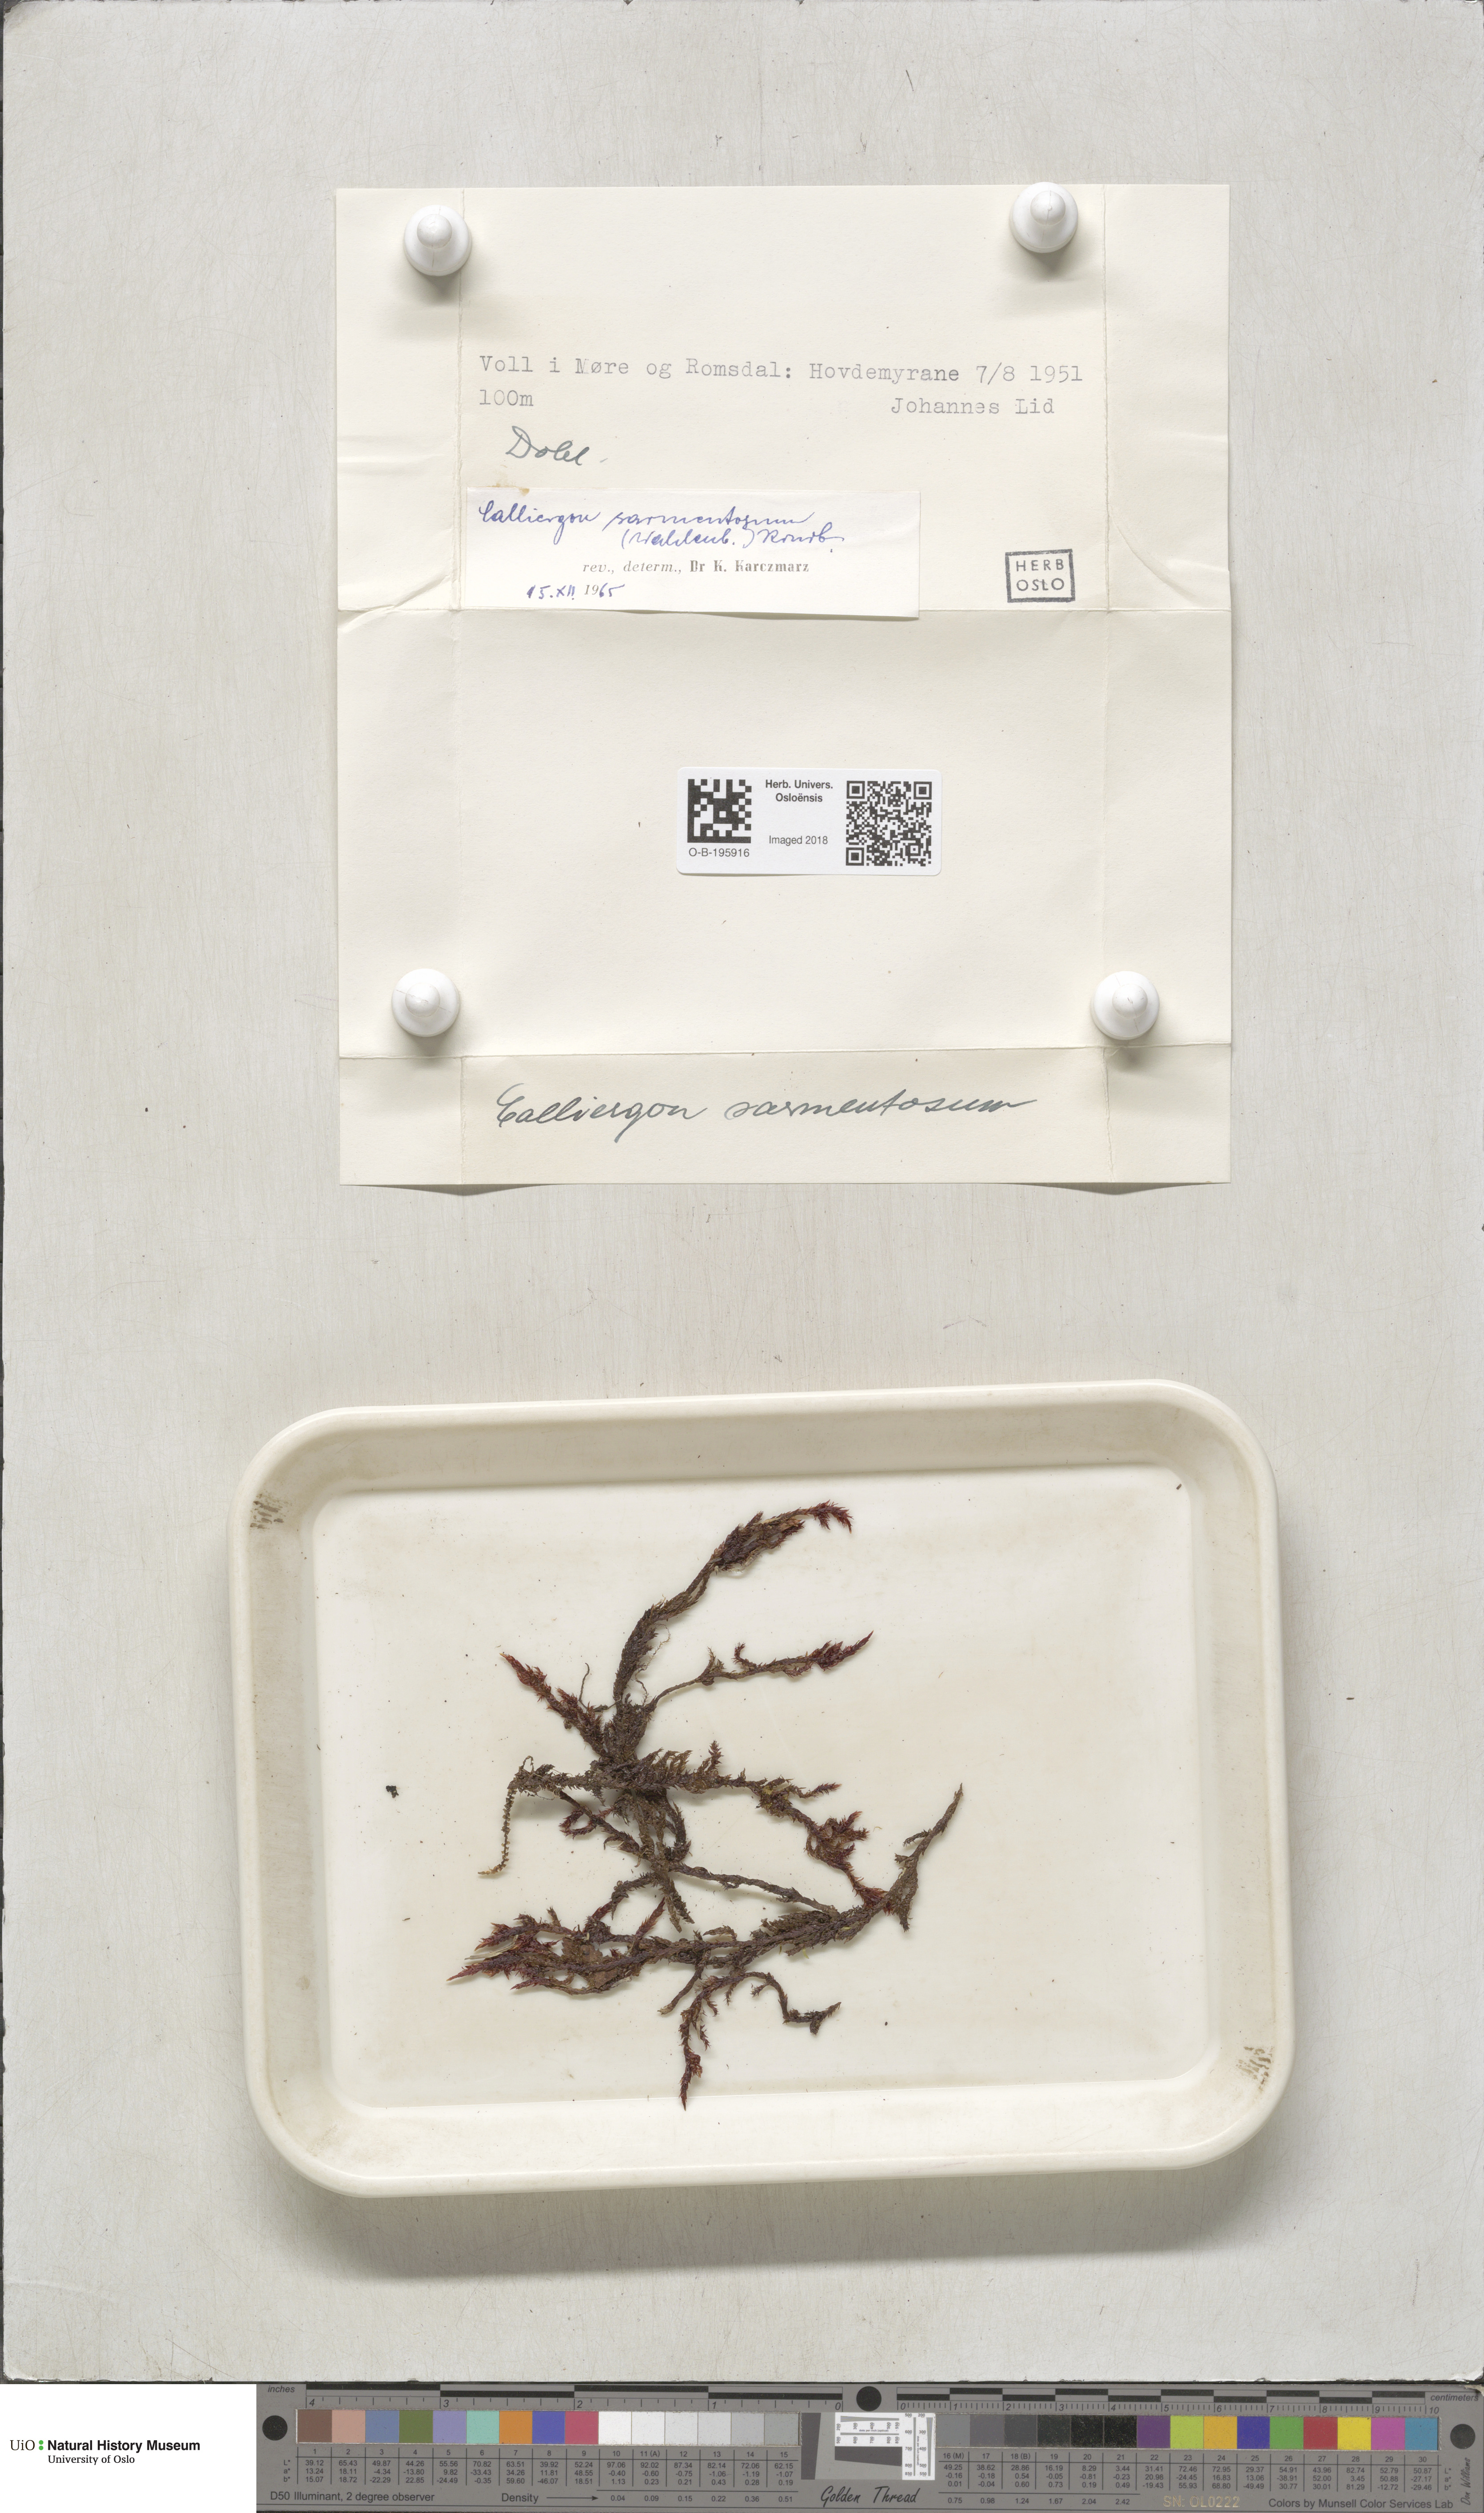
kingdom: Plantae
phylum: Bryophyta
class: Bryopsida
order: Hypnales
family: Calliergonaceae
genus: Sarmentypnum
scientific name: Sarmentypnum sarmentosum
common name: Twiggy spoon moss
